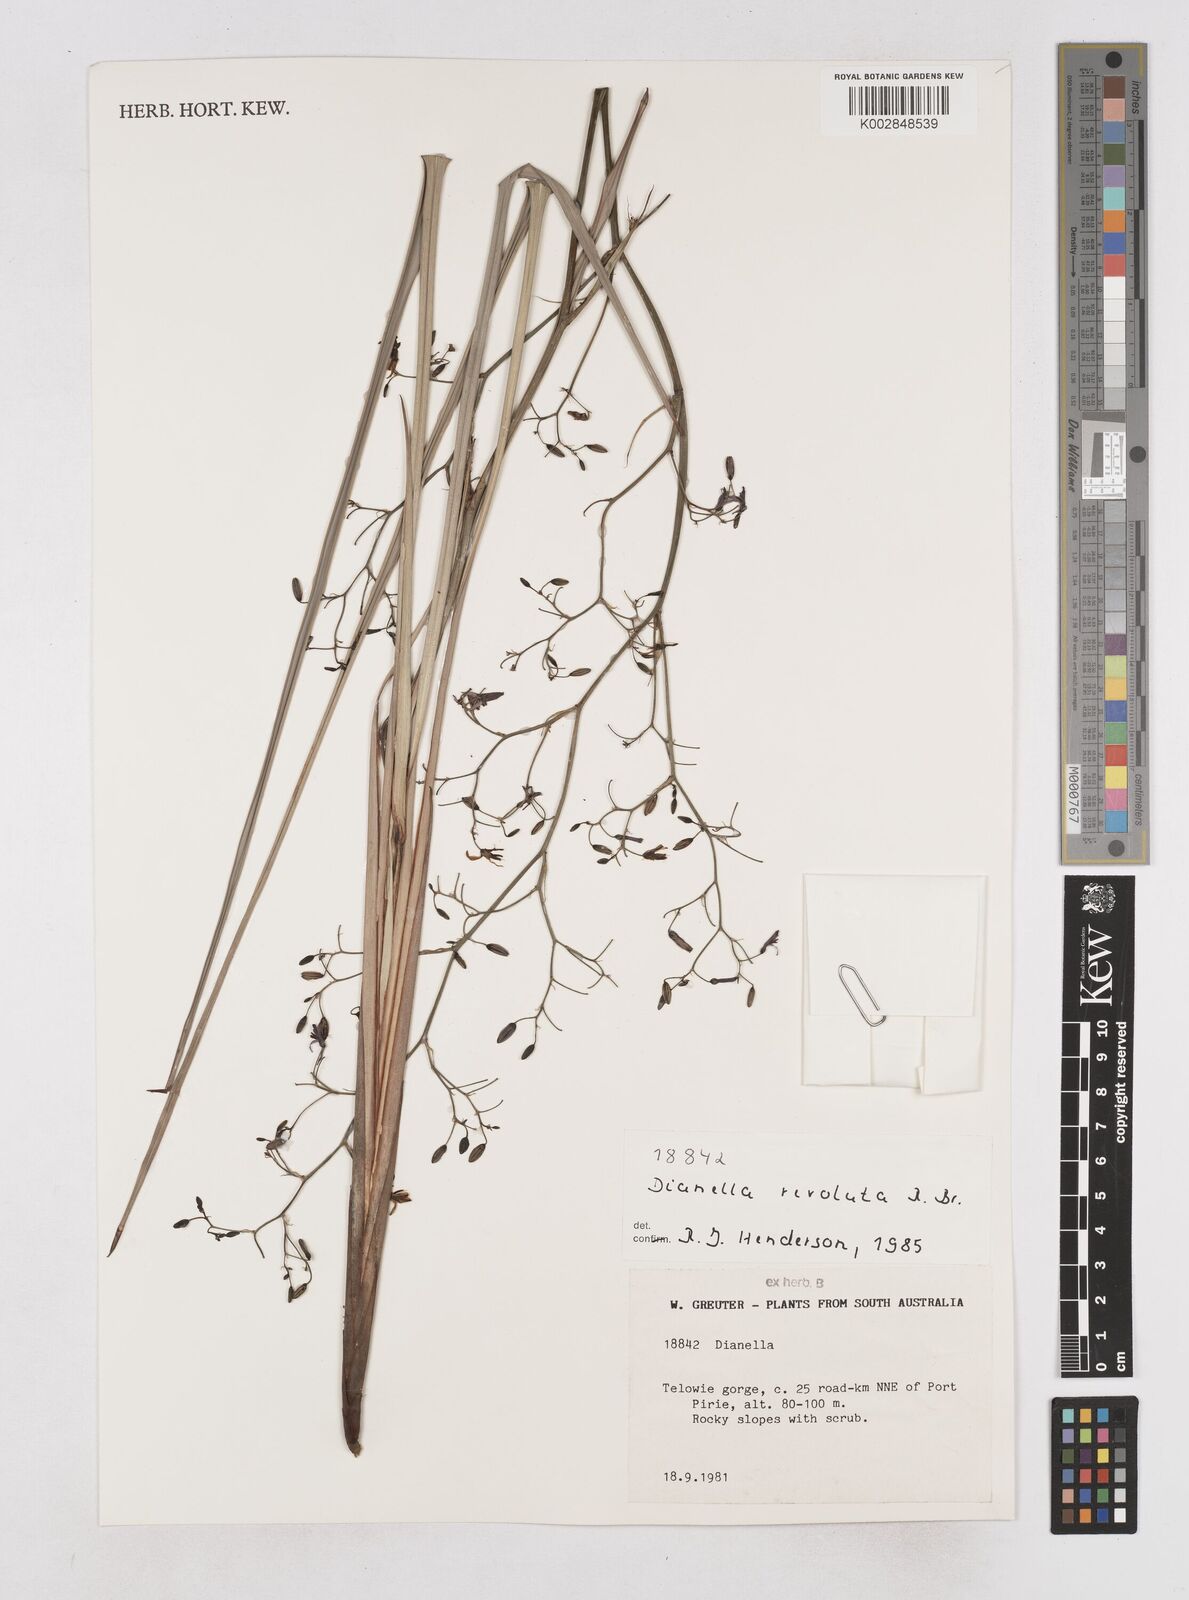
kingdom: Plantae
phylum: Tracheophyta
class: Liliopsida
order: Asparagales
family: Asphodelaceae
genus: Dianella
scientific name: Dianella revoluta
